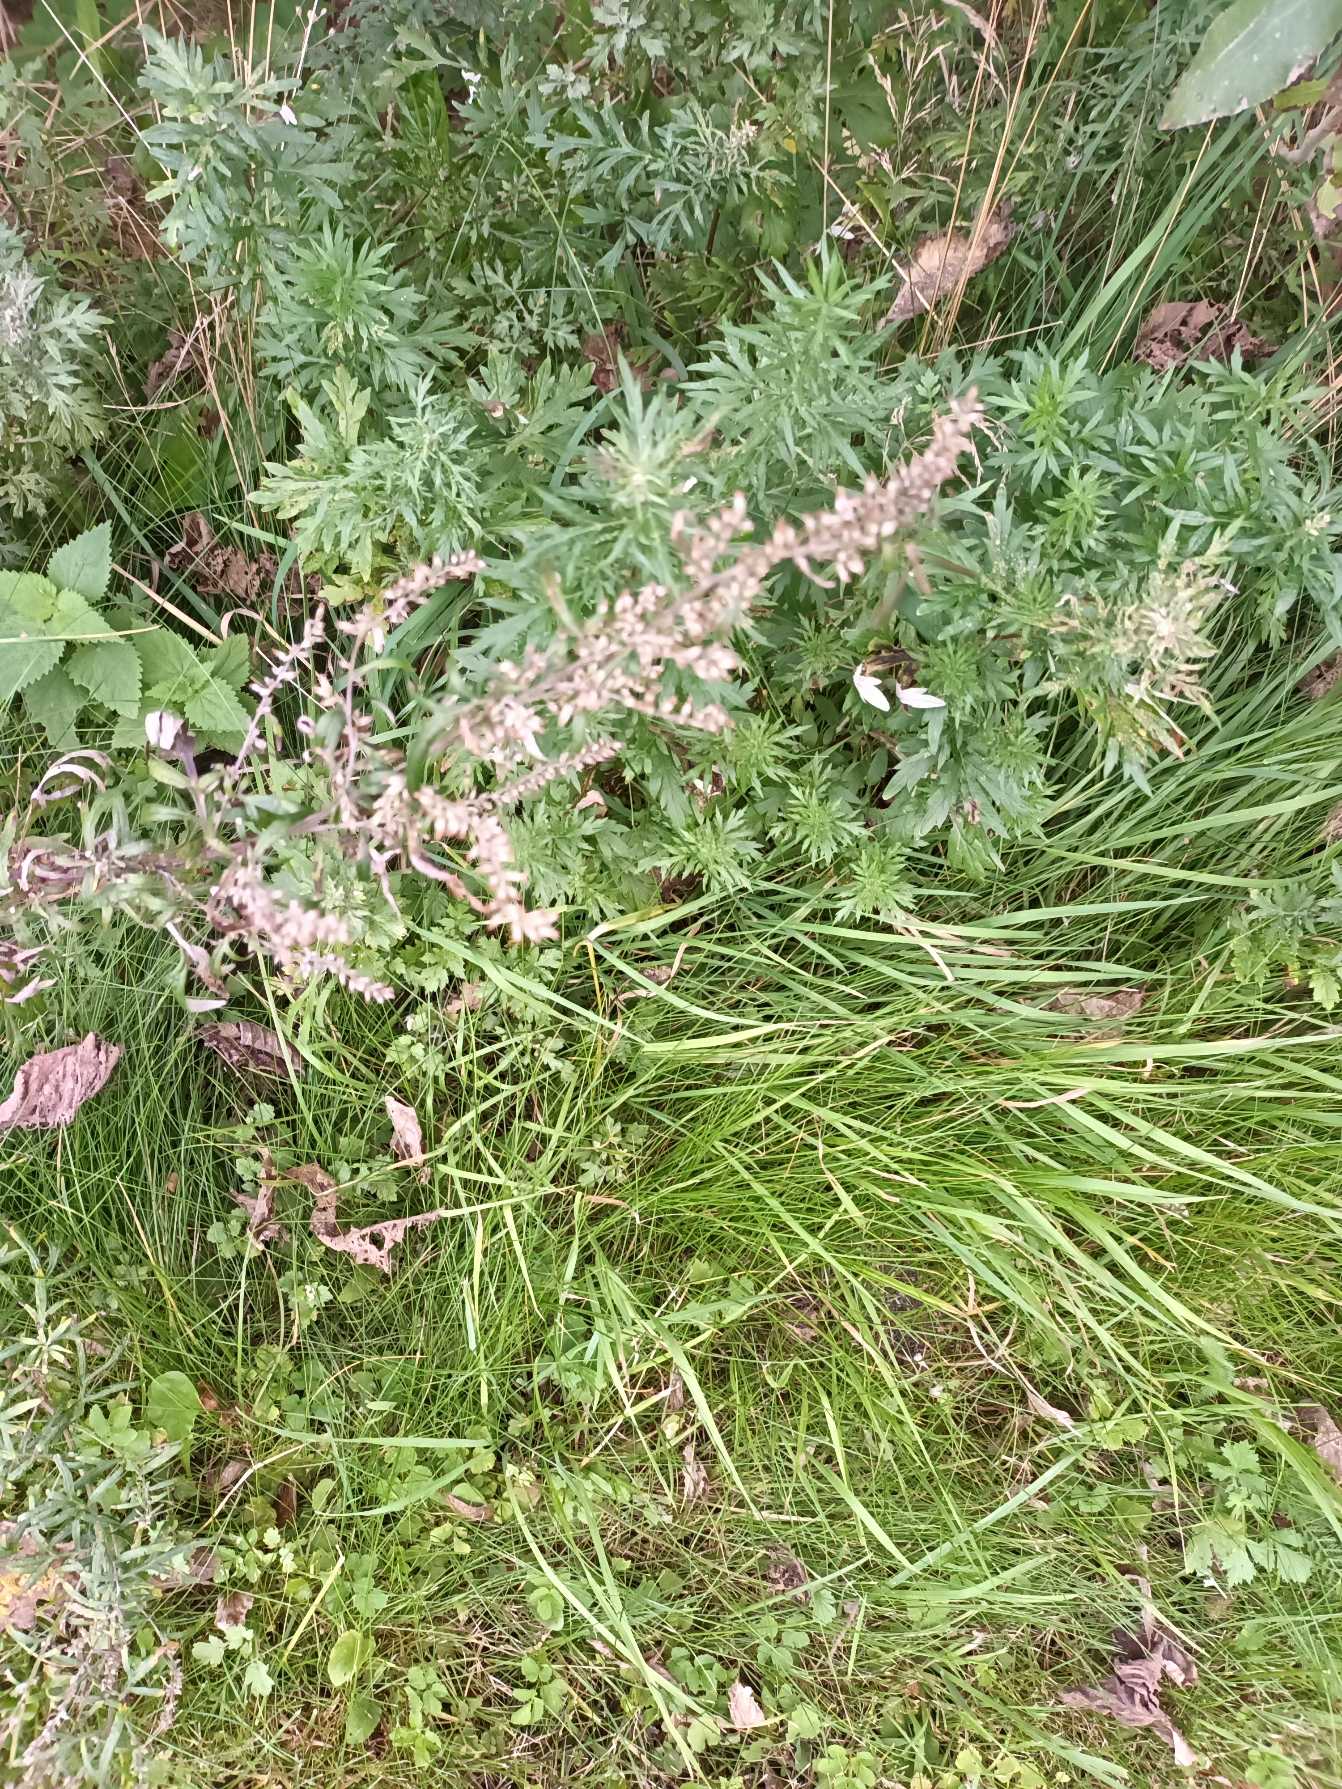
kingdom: Plantae
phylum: Tracheophyta
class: Magnoliopsida
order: Asterales
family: Asteraceae
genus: Artemisia
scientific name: Artemisia vulgaris
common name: Grå-bynke
